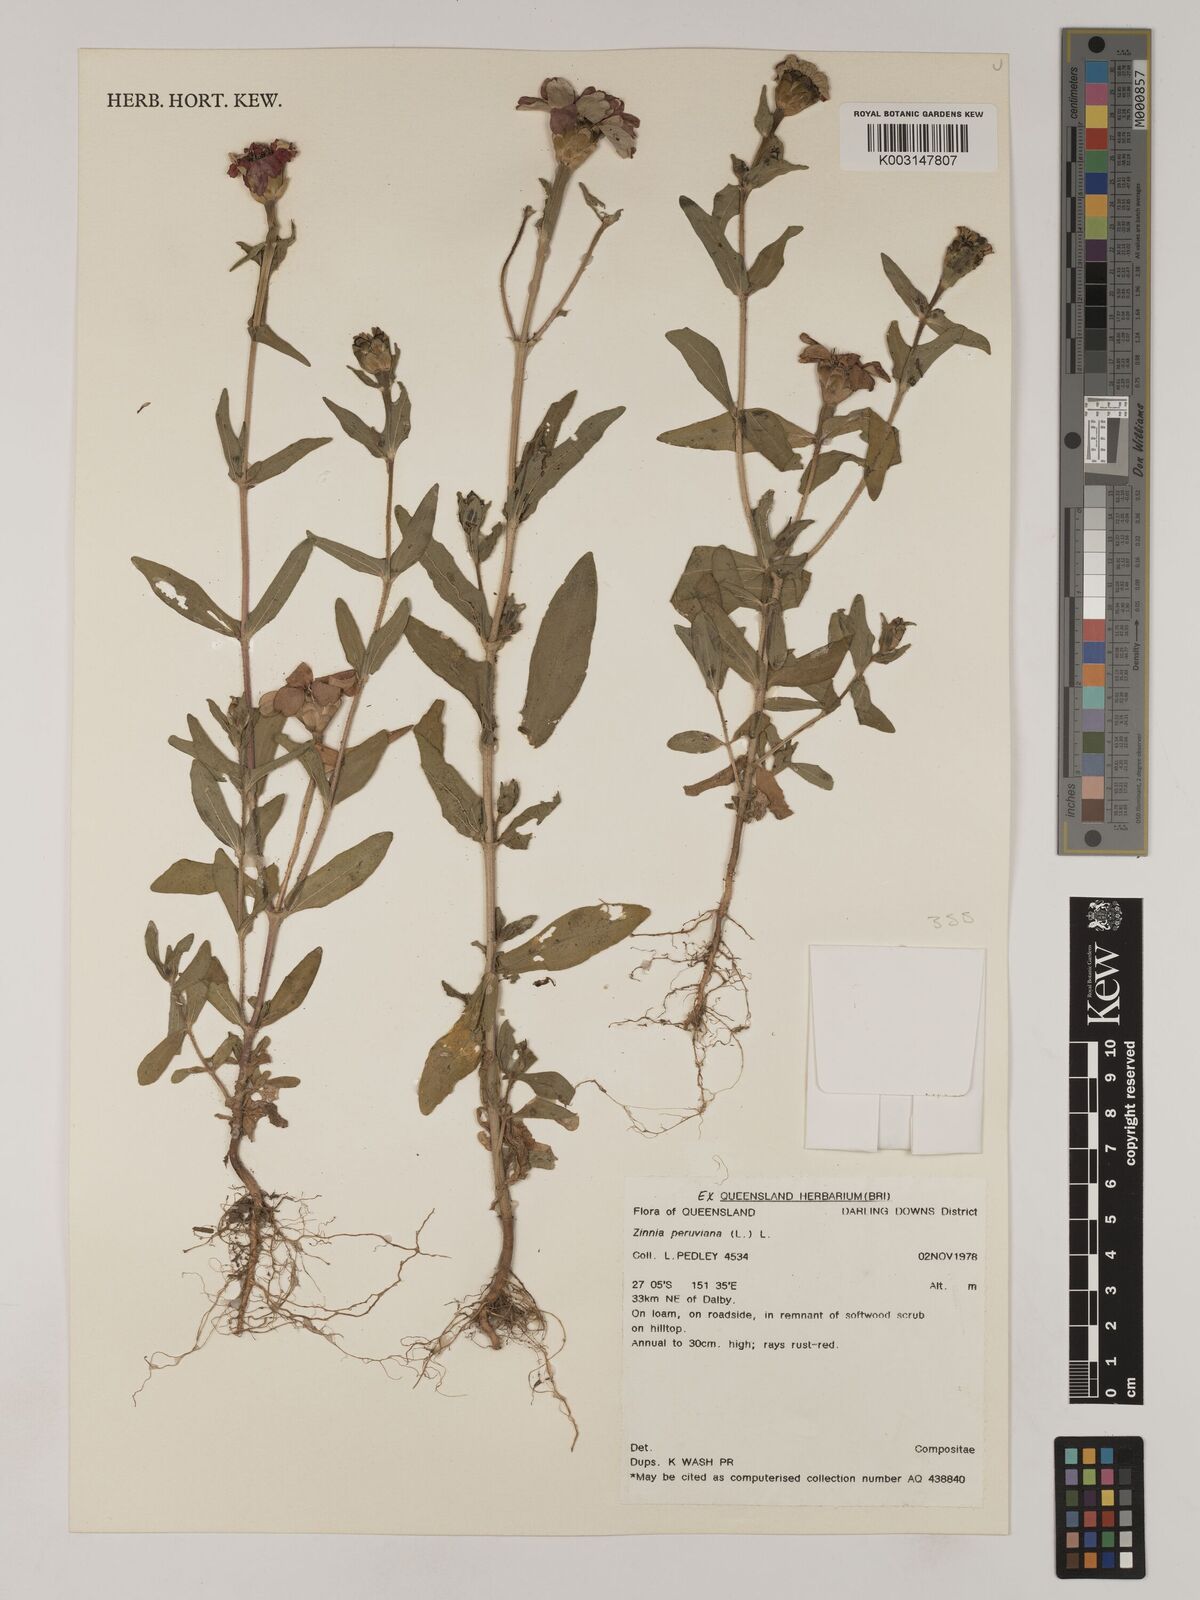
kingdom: Plantae
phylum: Tracheophyta
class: Magnoliopsida
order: Asterales
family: Asteraceae
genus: Zinnia
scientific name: Zinnia peruviana
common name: Peruvian zinnia
